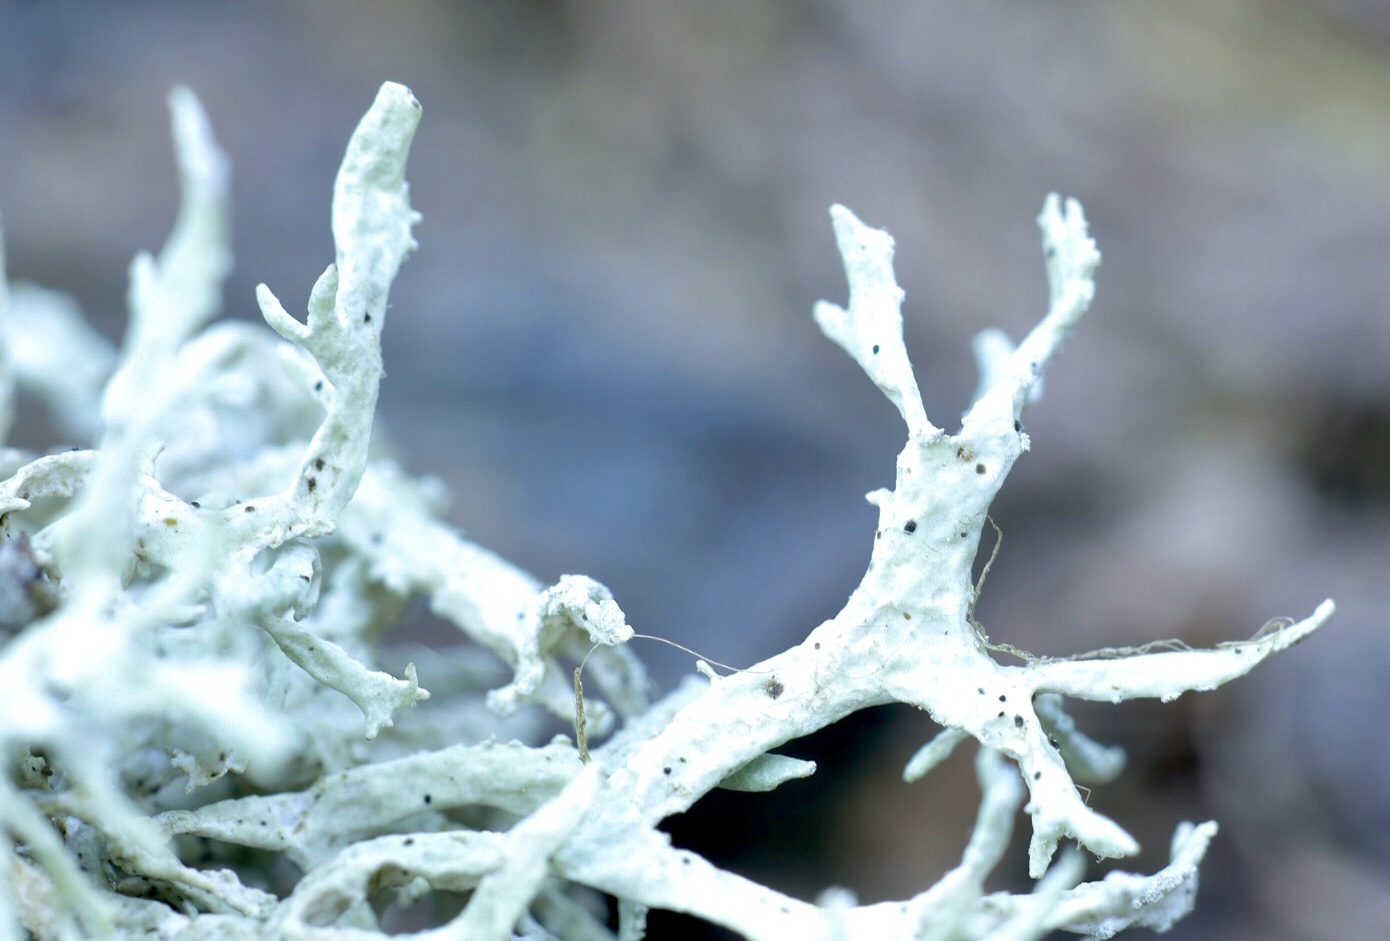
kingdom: Fungi
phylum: Ascomycota
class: Lecanoromycetes
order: Lecanorales
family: Parmeliaceae
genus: Evernia
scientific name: Evernia prunastri
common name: almindelig slåenlav
